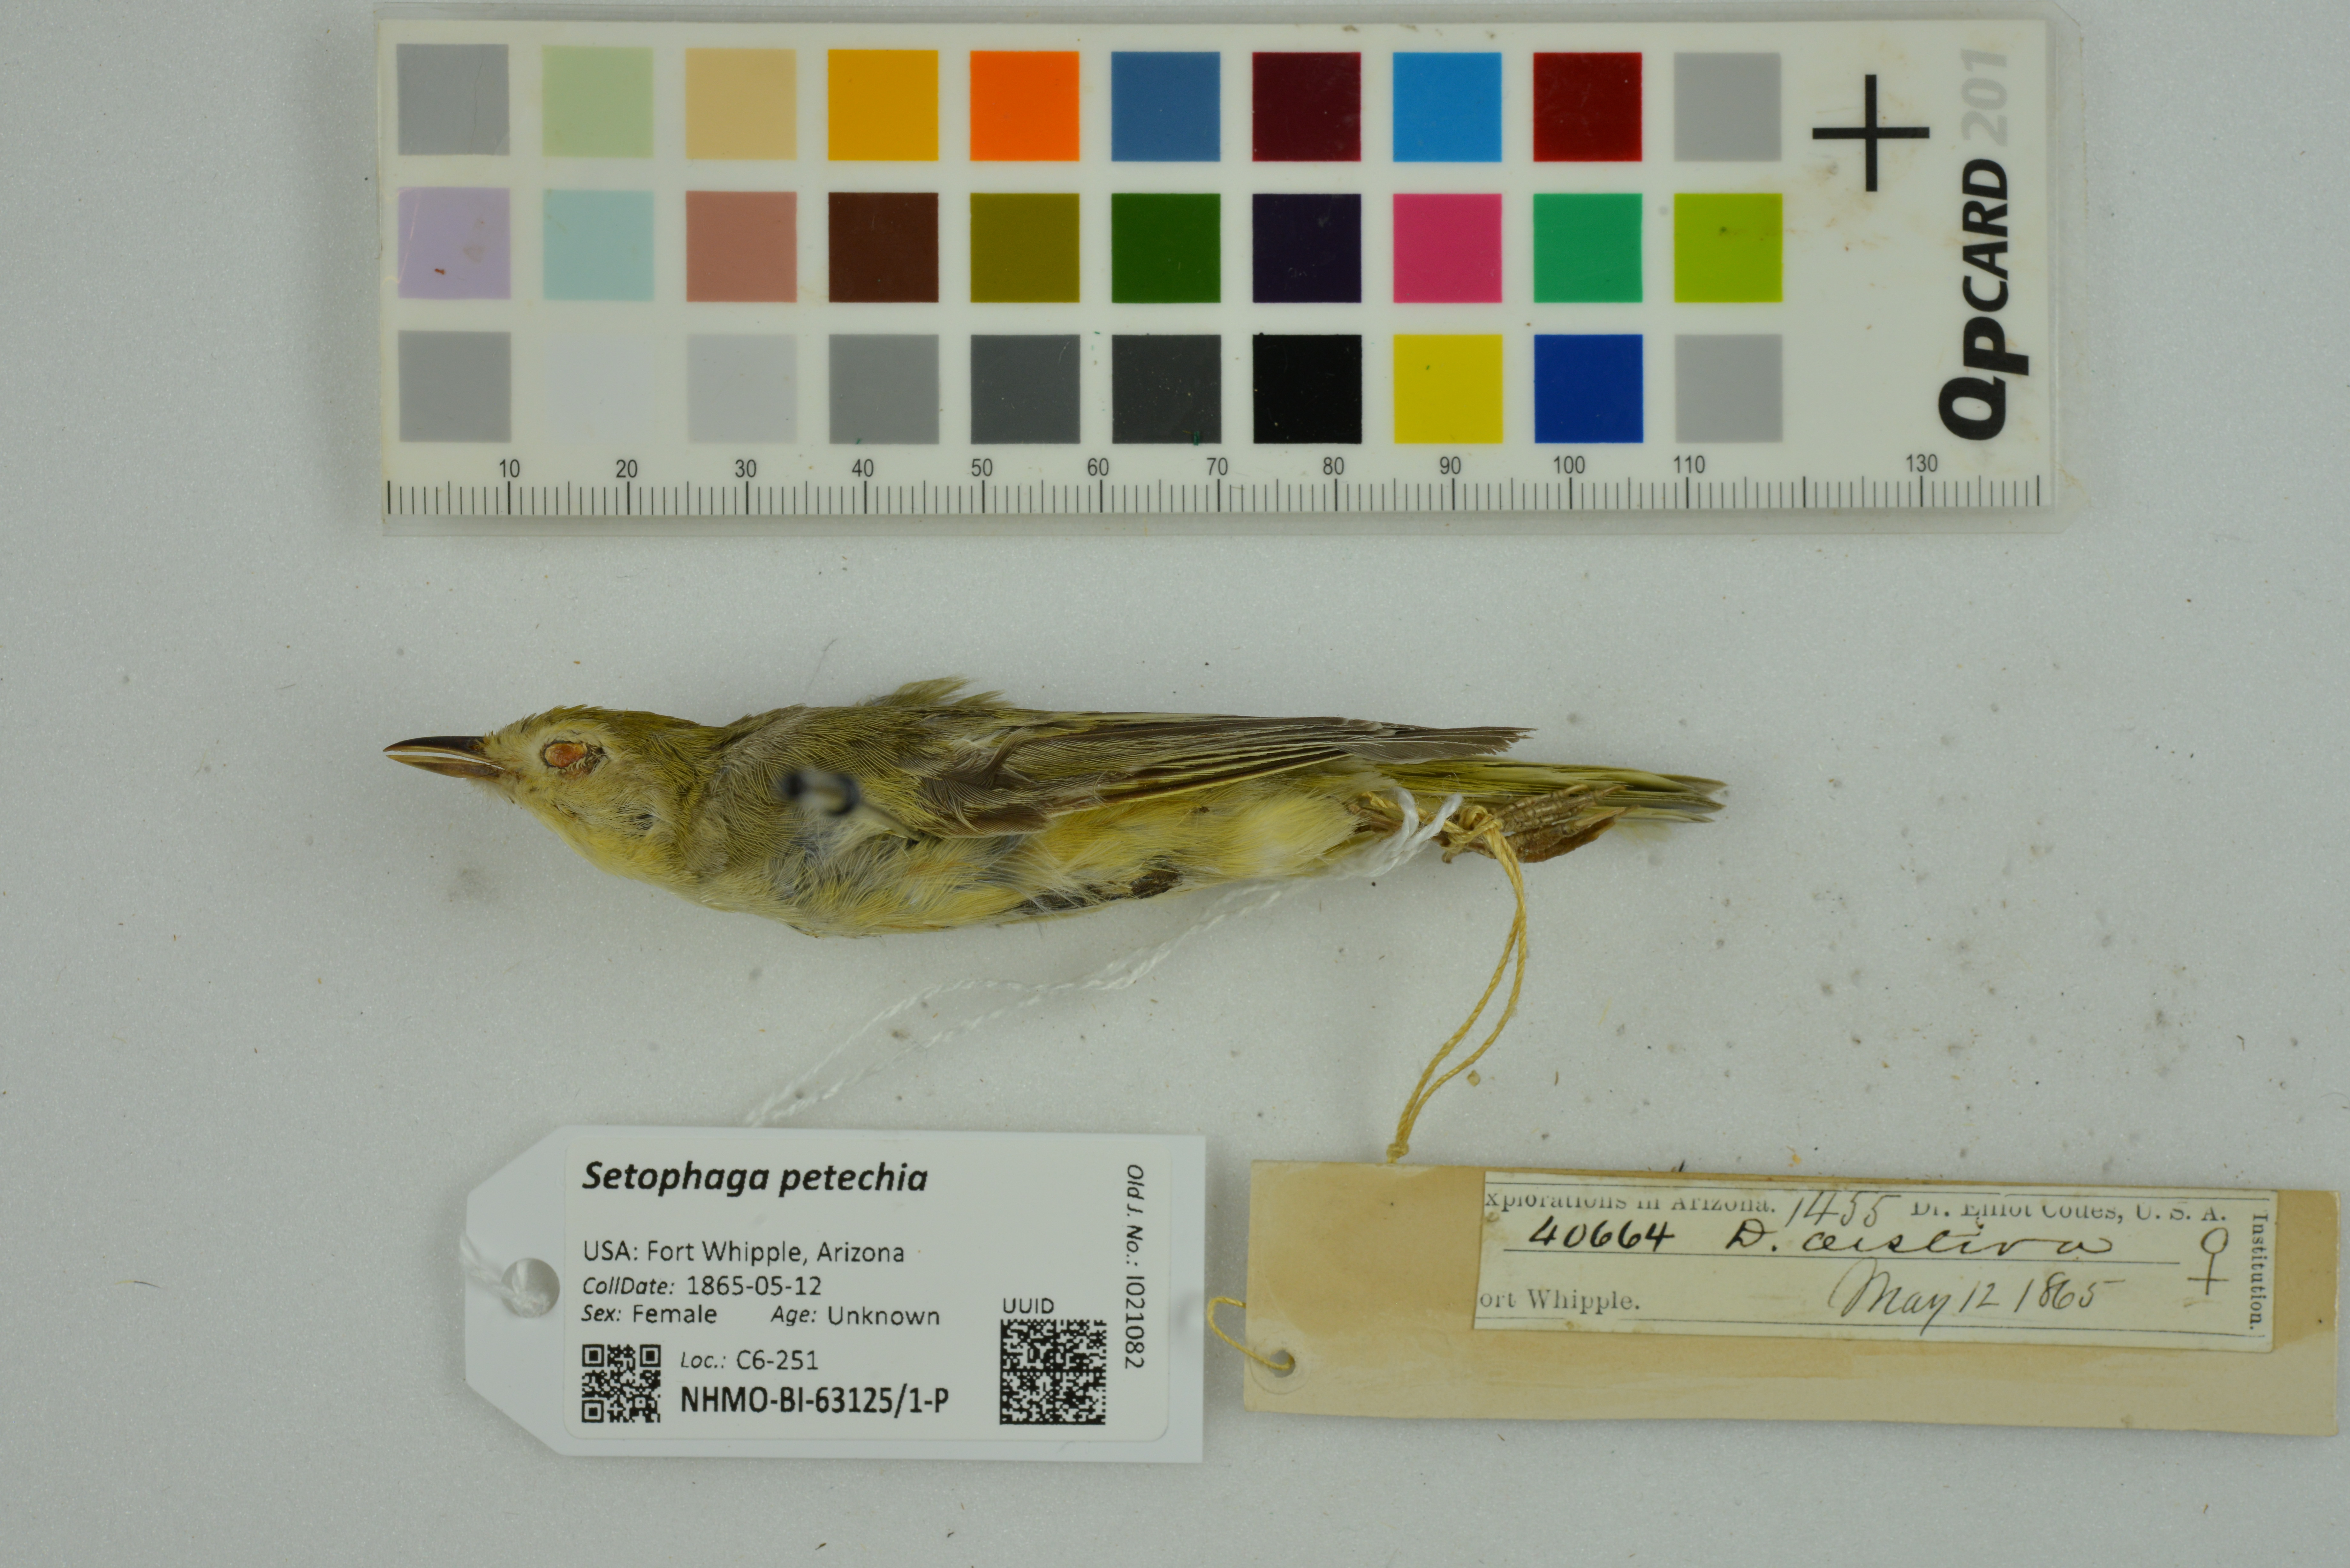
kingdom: Animalia
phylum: Chordata
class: Aves
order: Passeriformes
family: Parulidae
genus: Setophaga
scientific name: Setophaga petechia
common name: Yellow warbler
